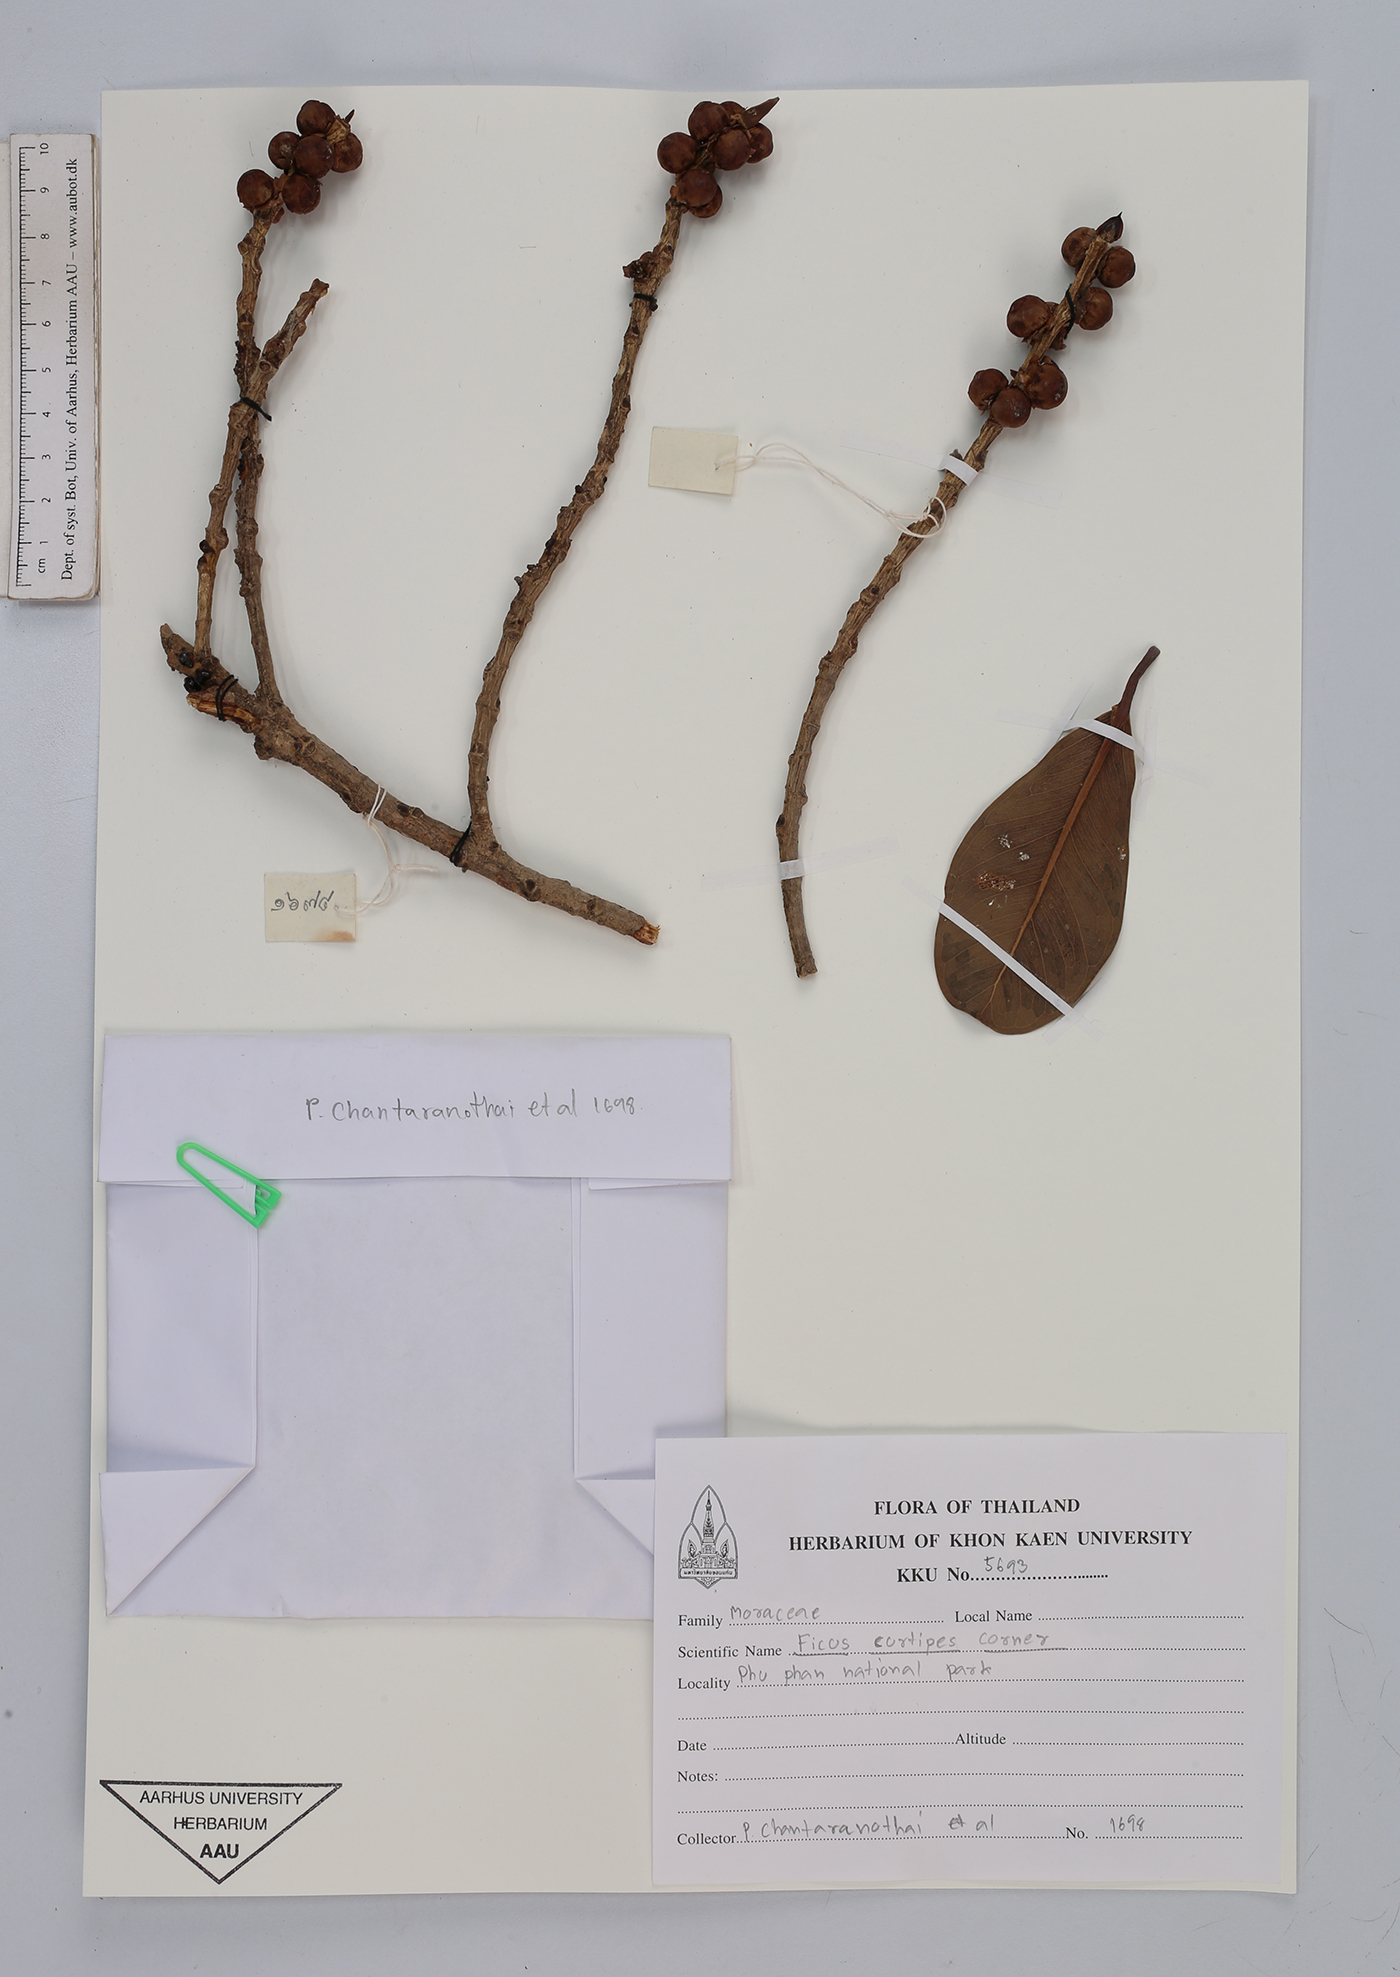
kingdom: Plantae
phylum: Tracheophyta
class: Magnoliopsida
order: Rosales
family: Moraceae
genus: Ficus
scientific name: Ficus curtipes
